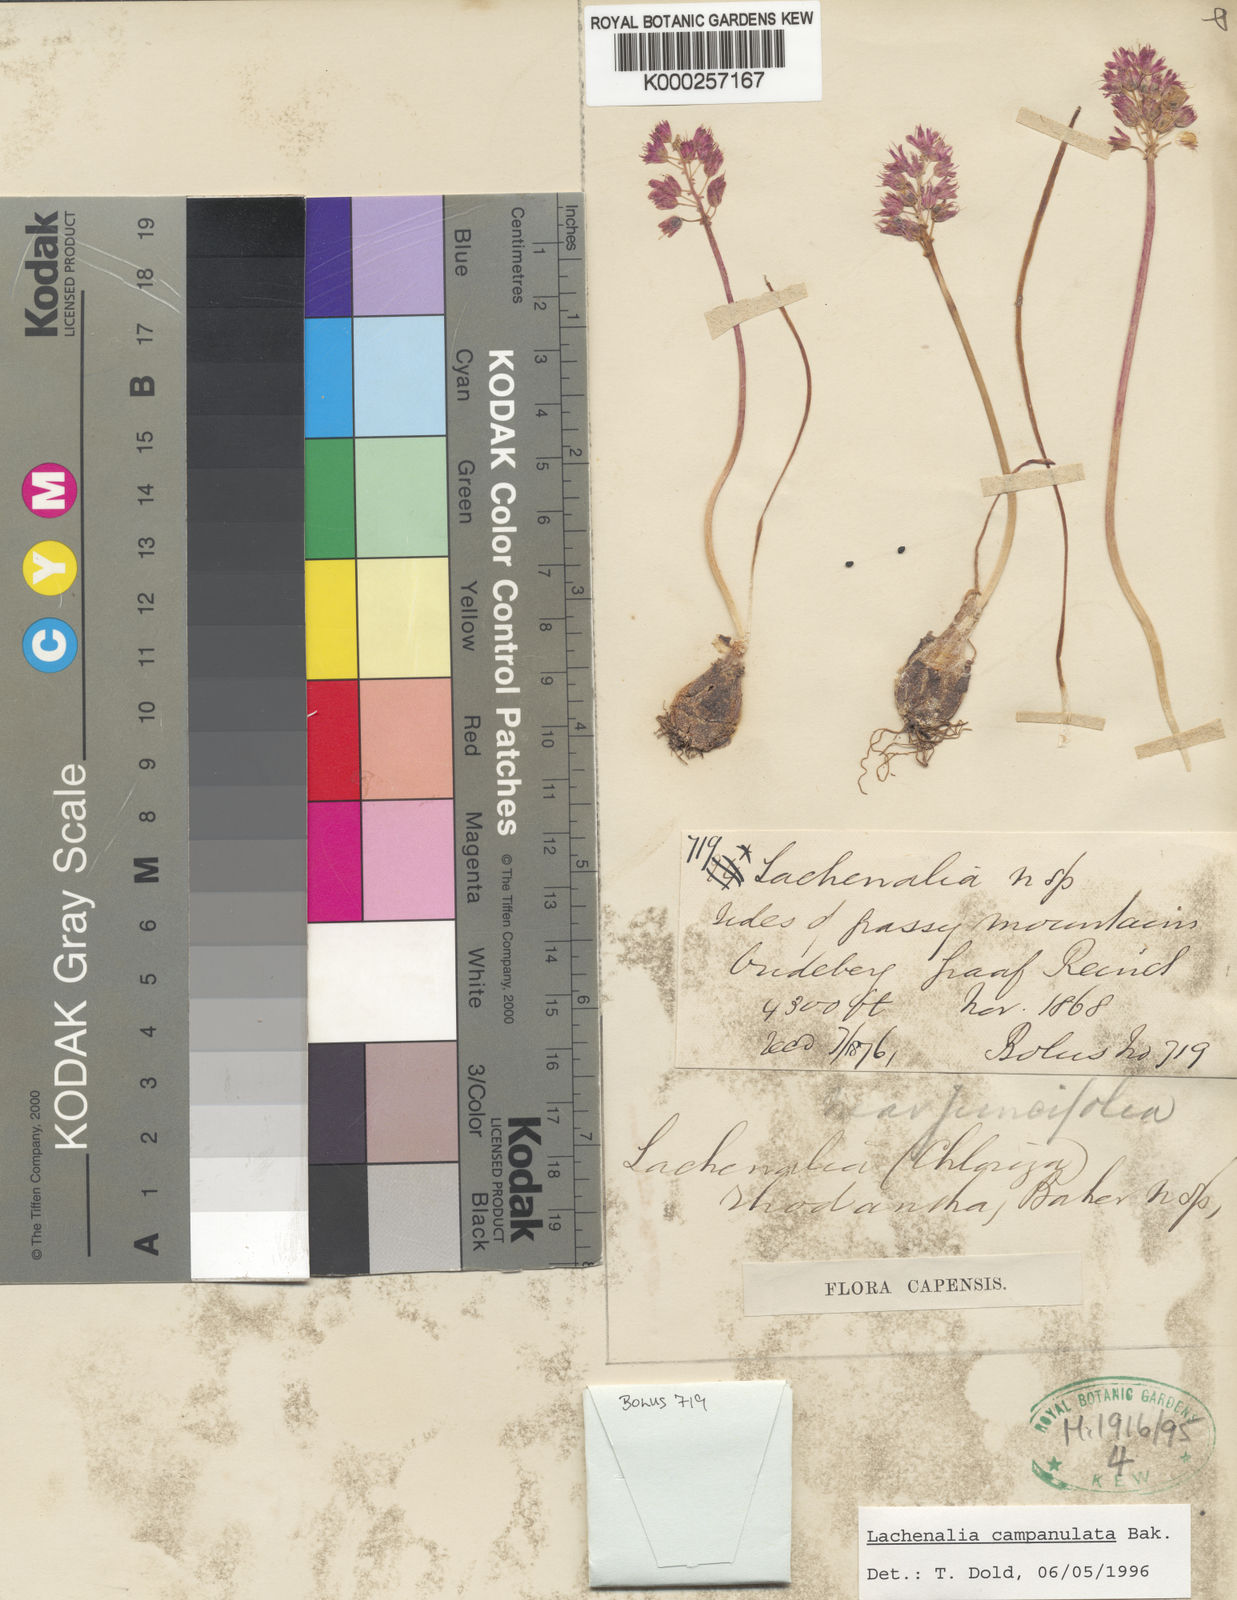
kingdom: Plantae
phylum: Tracheophyta
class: Liliopsida
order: Asparagales
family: Asparagaceae
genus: Lachenalia
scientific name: Lachenalia campanulata
